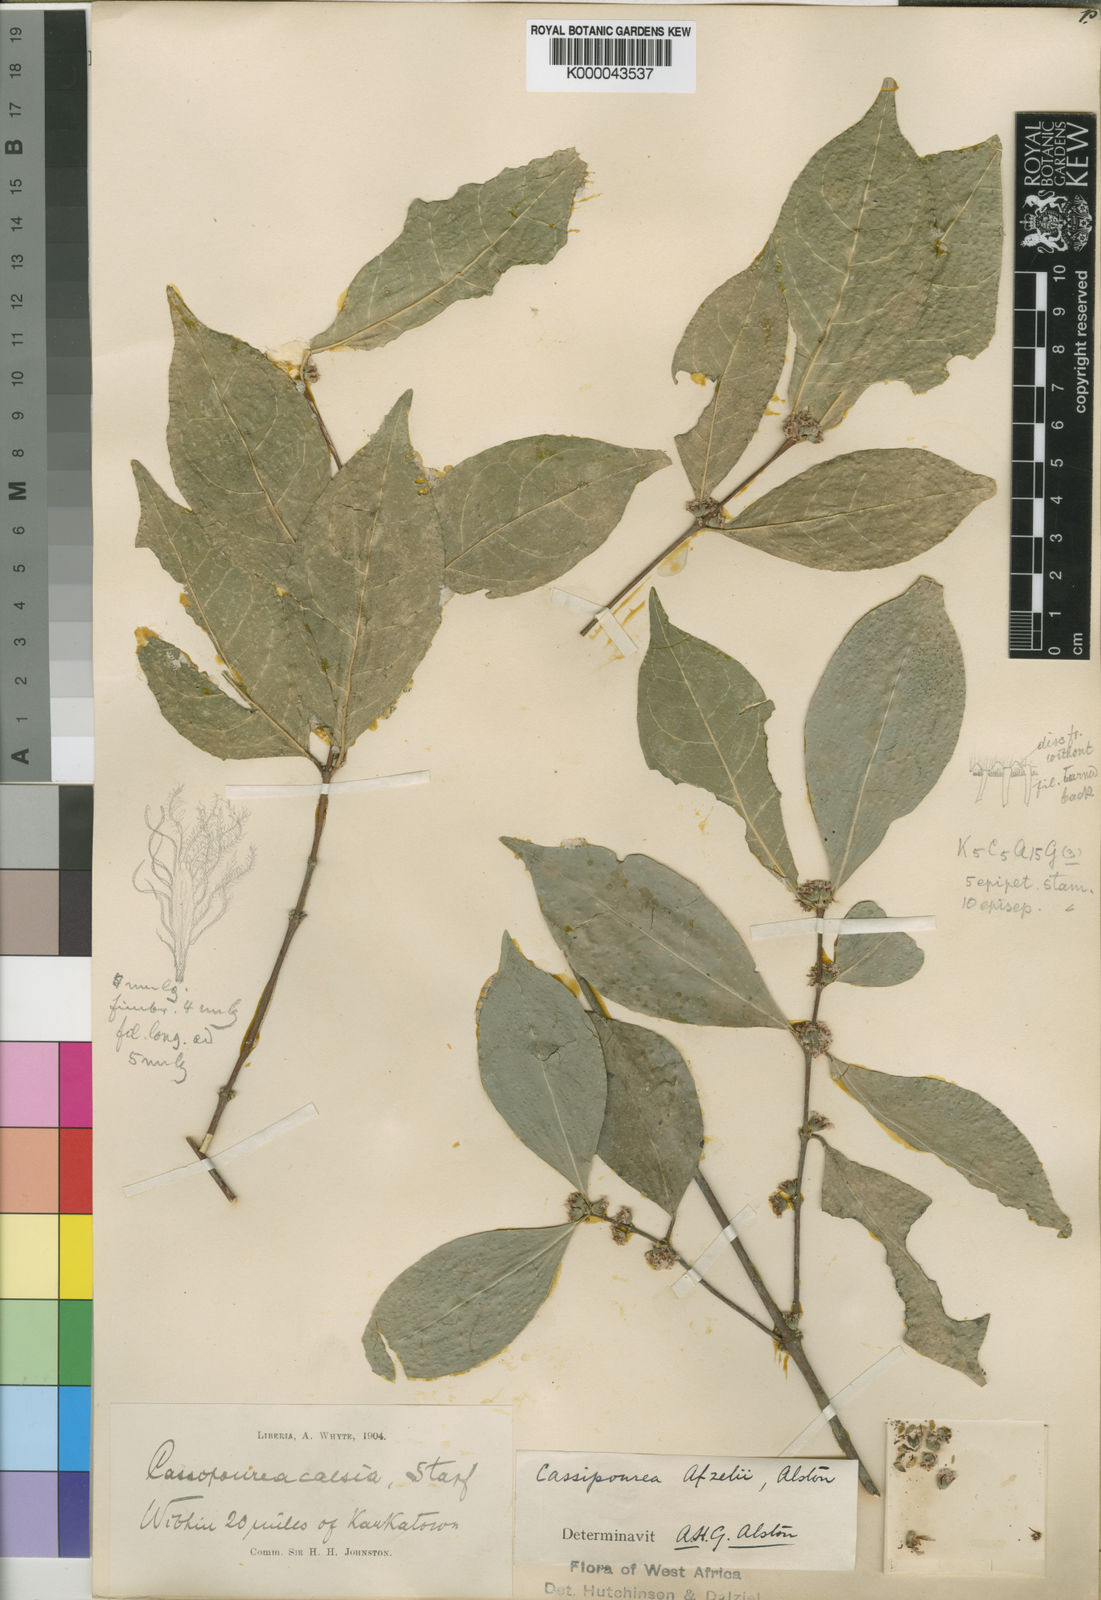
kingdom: Plantae
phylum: Tracheophyta
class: Magnoliopsida
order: Malpighiales
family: Rhizophoraceae
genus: Cassipourea
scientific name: Cassipourea afzelii
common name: Elephant tusk tree
